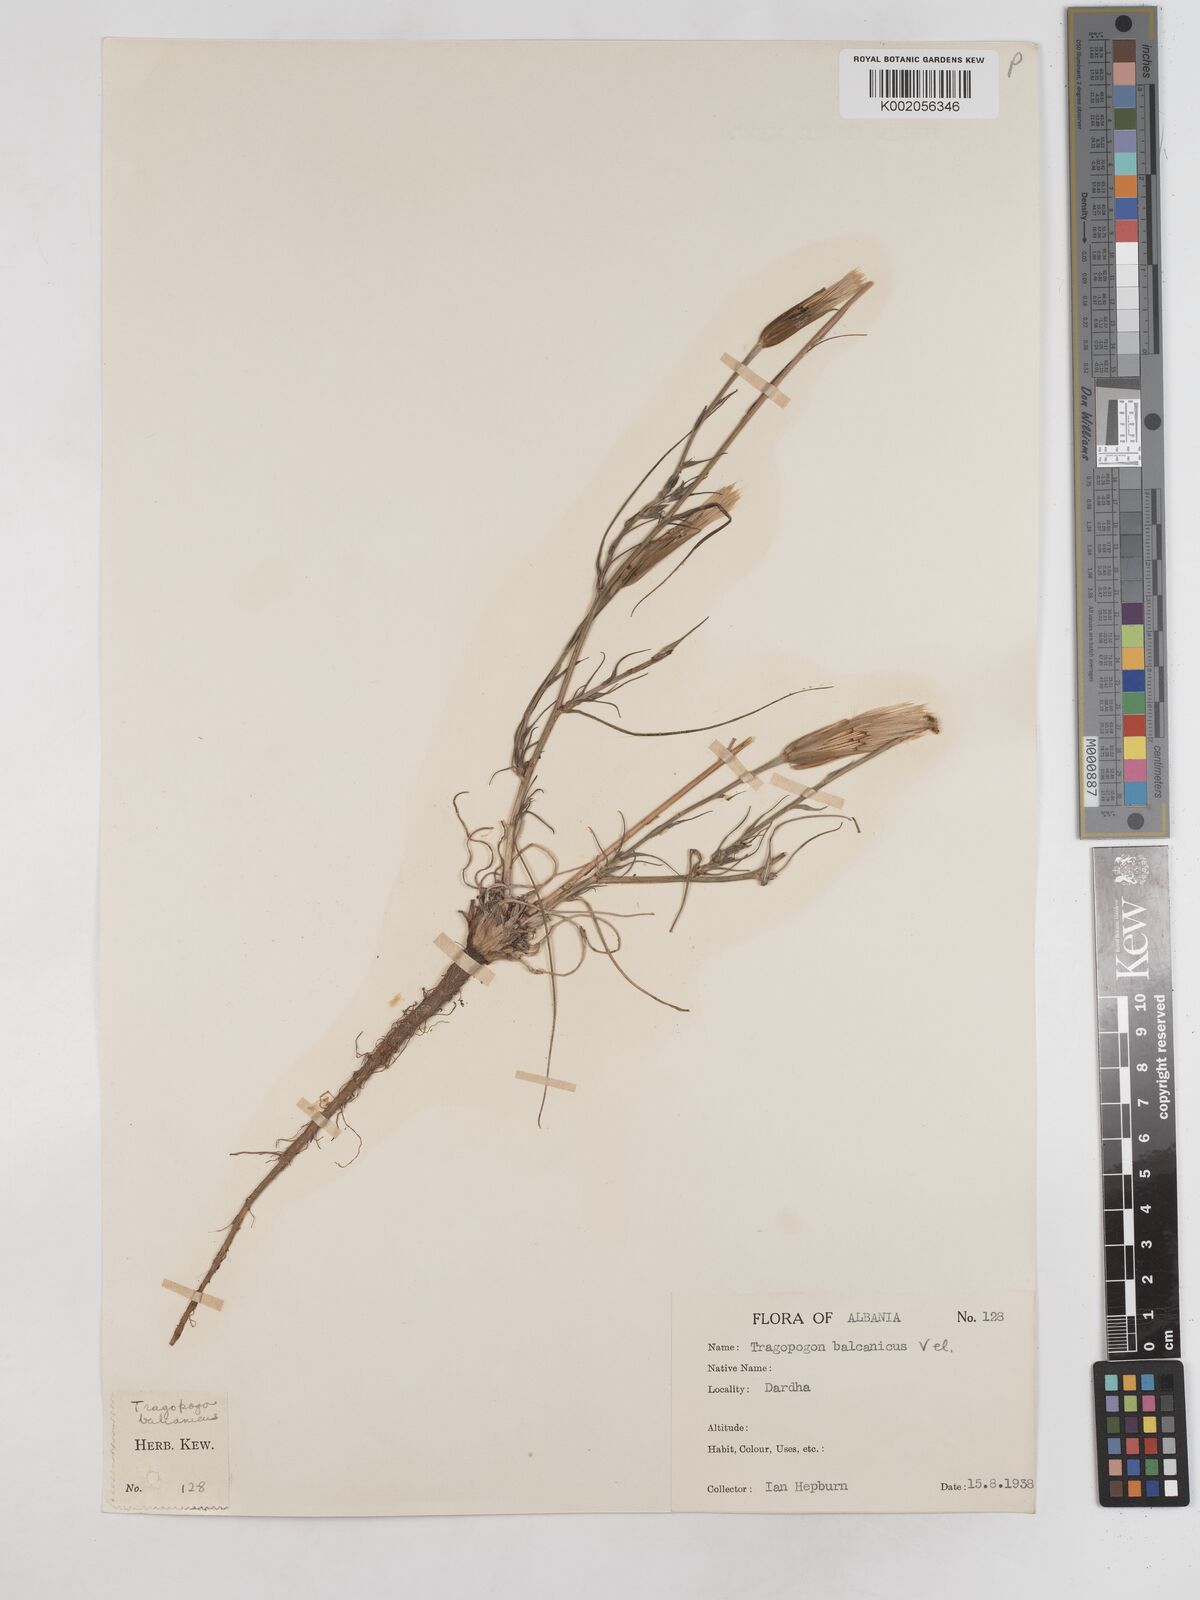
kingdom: Plantae
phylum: Tracheophyta
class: Magnoliopsida
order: Asterales
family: Asteraceae
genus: Tragopogon
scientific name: Tragopogon balcanicus
